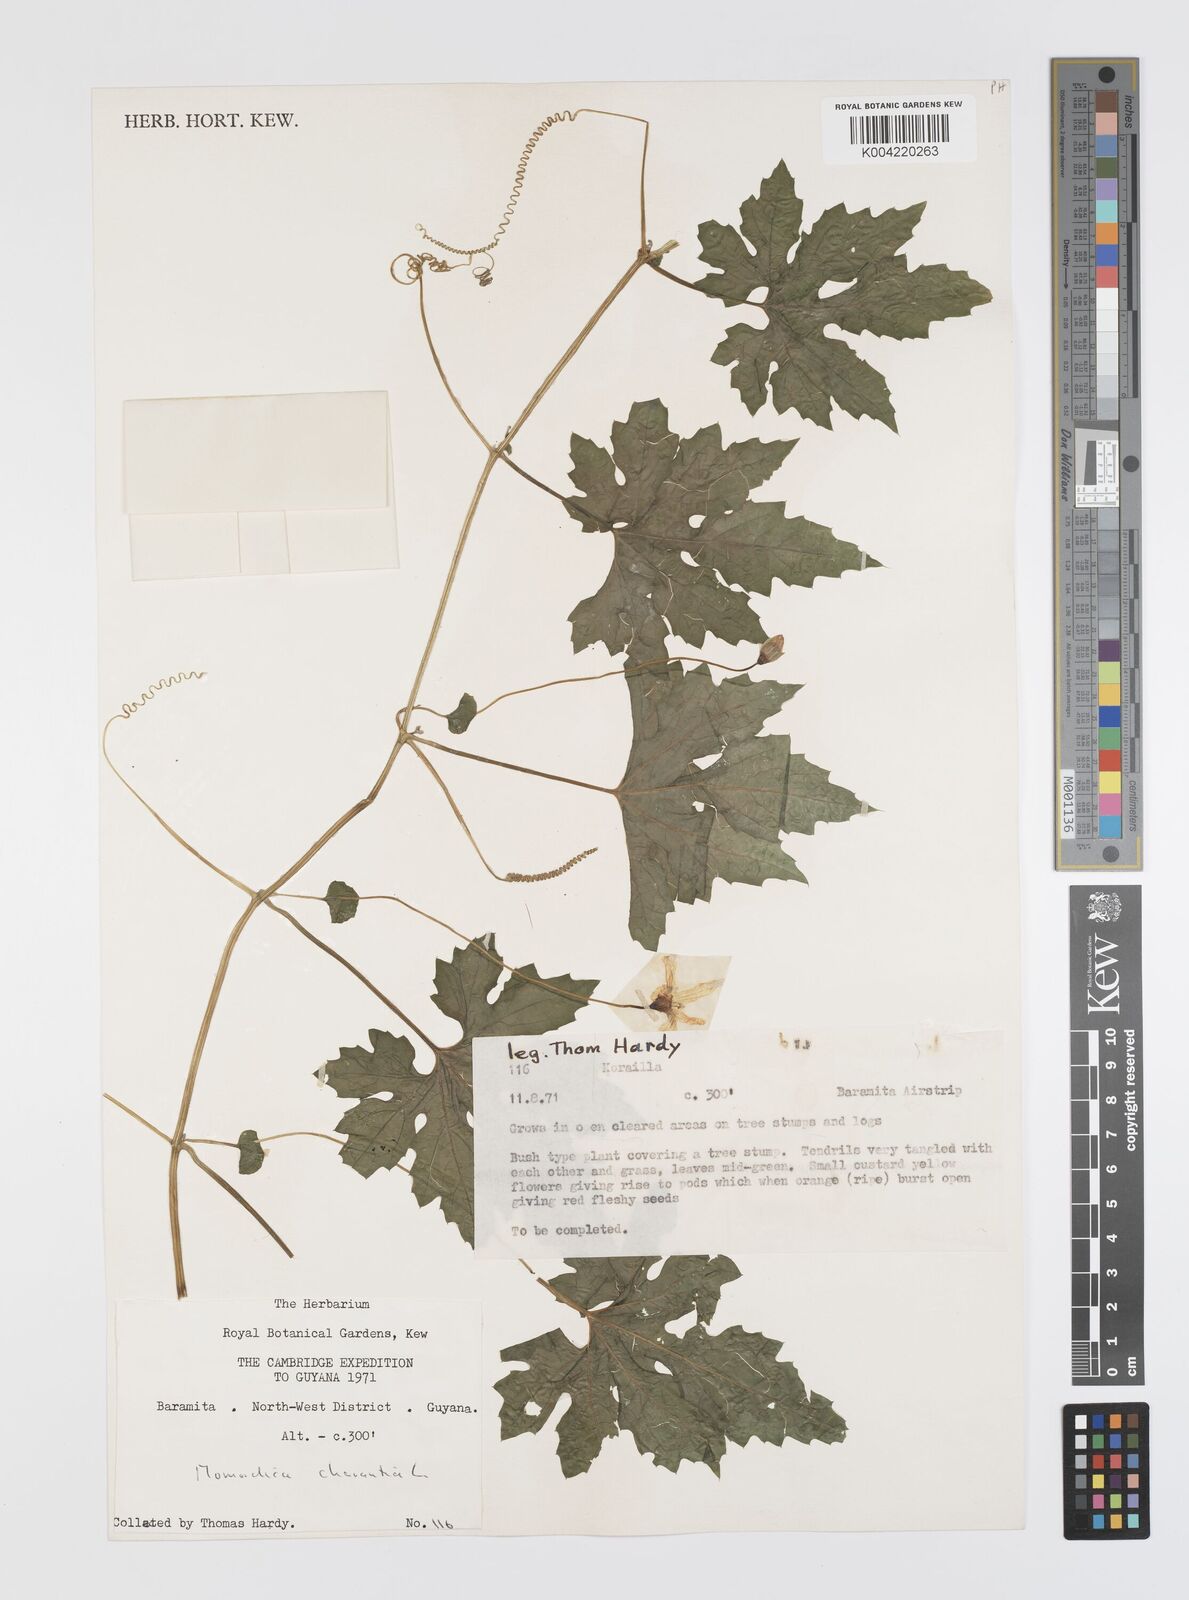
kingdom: Plantae
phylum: Tracheophyta
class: Magnoliopsida
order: Cucurbitales
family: Cucurbitaceae
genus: Momordica
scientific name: Momordica charantia
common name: Balsampear
